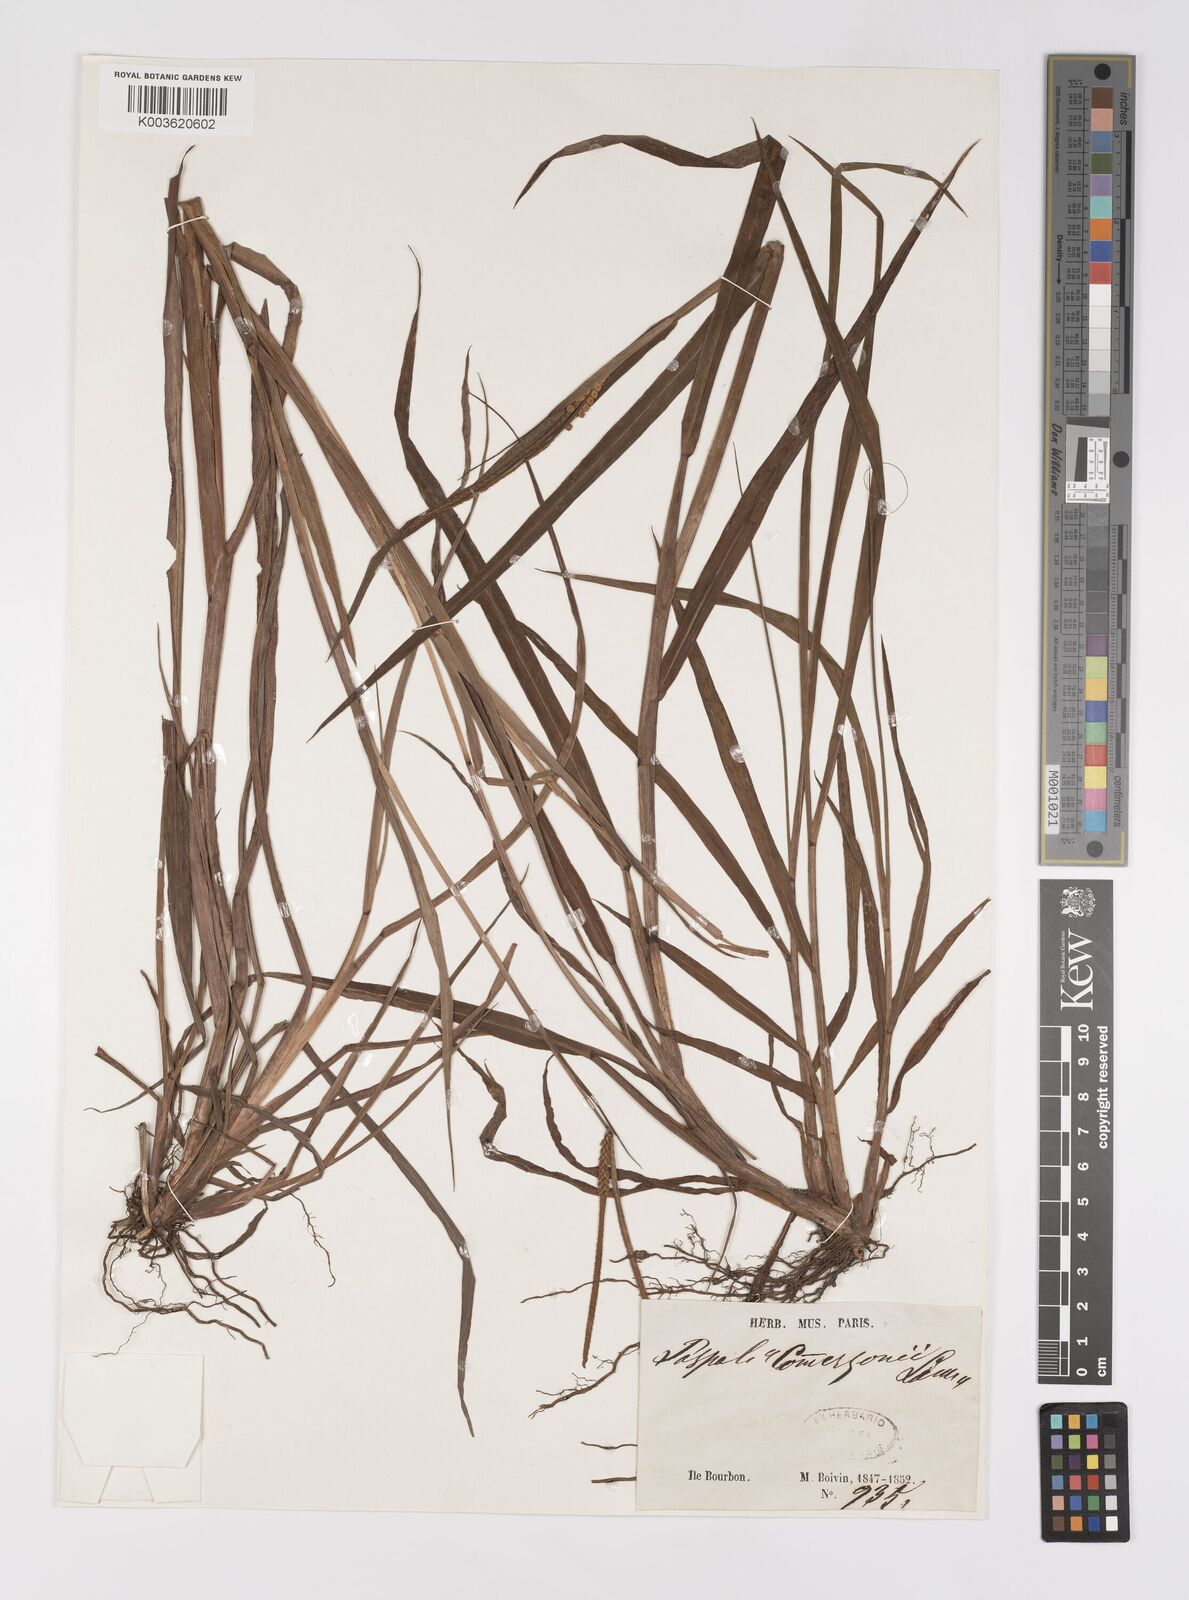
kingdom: Plantae
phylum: Tracheophyta
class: Liliopsida
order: Poales
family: Poaceae
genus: Paspalum
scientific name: Paspalum scrobiculatum
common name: Kodo millet
